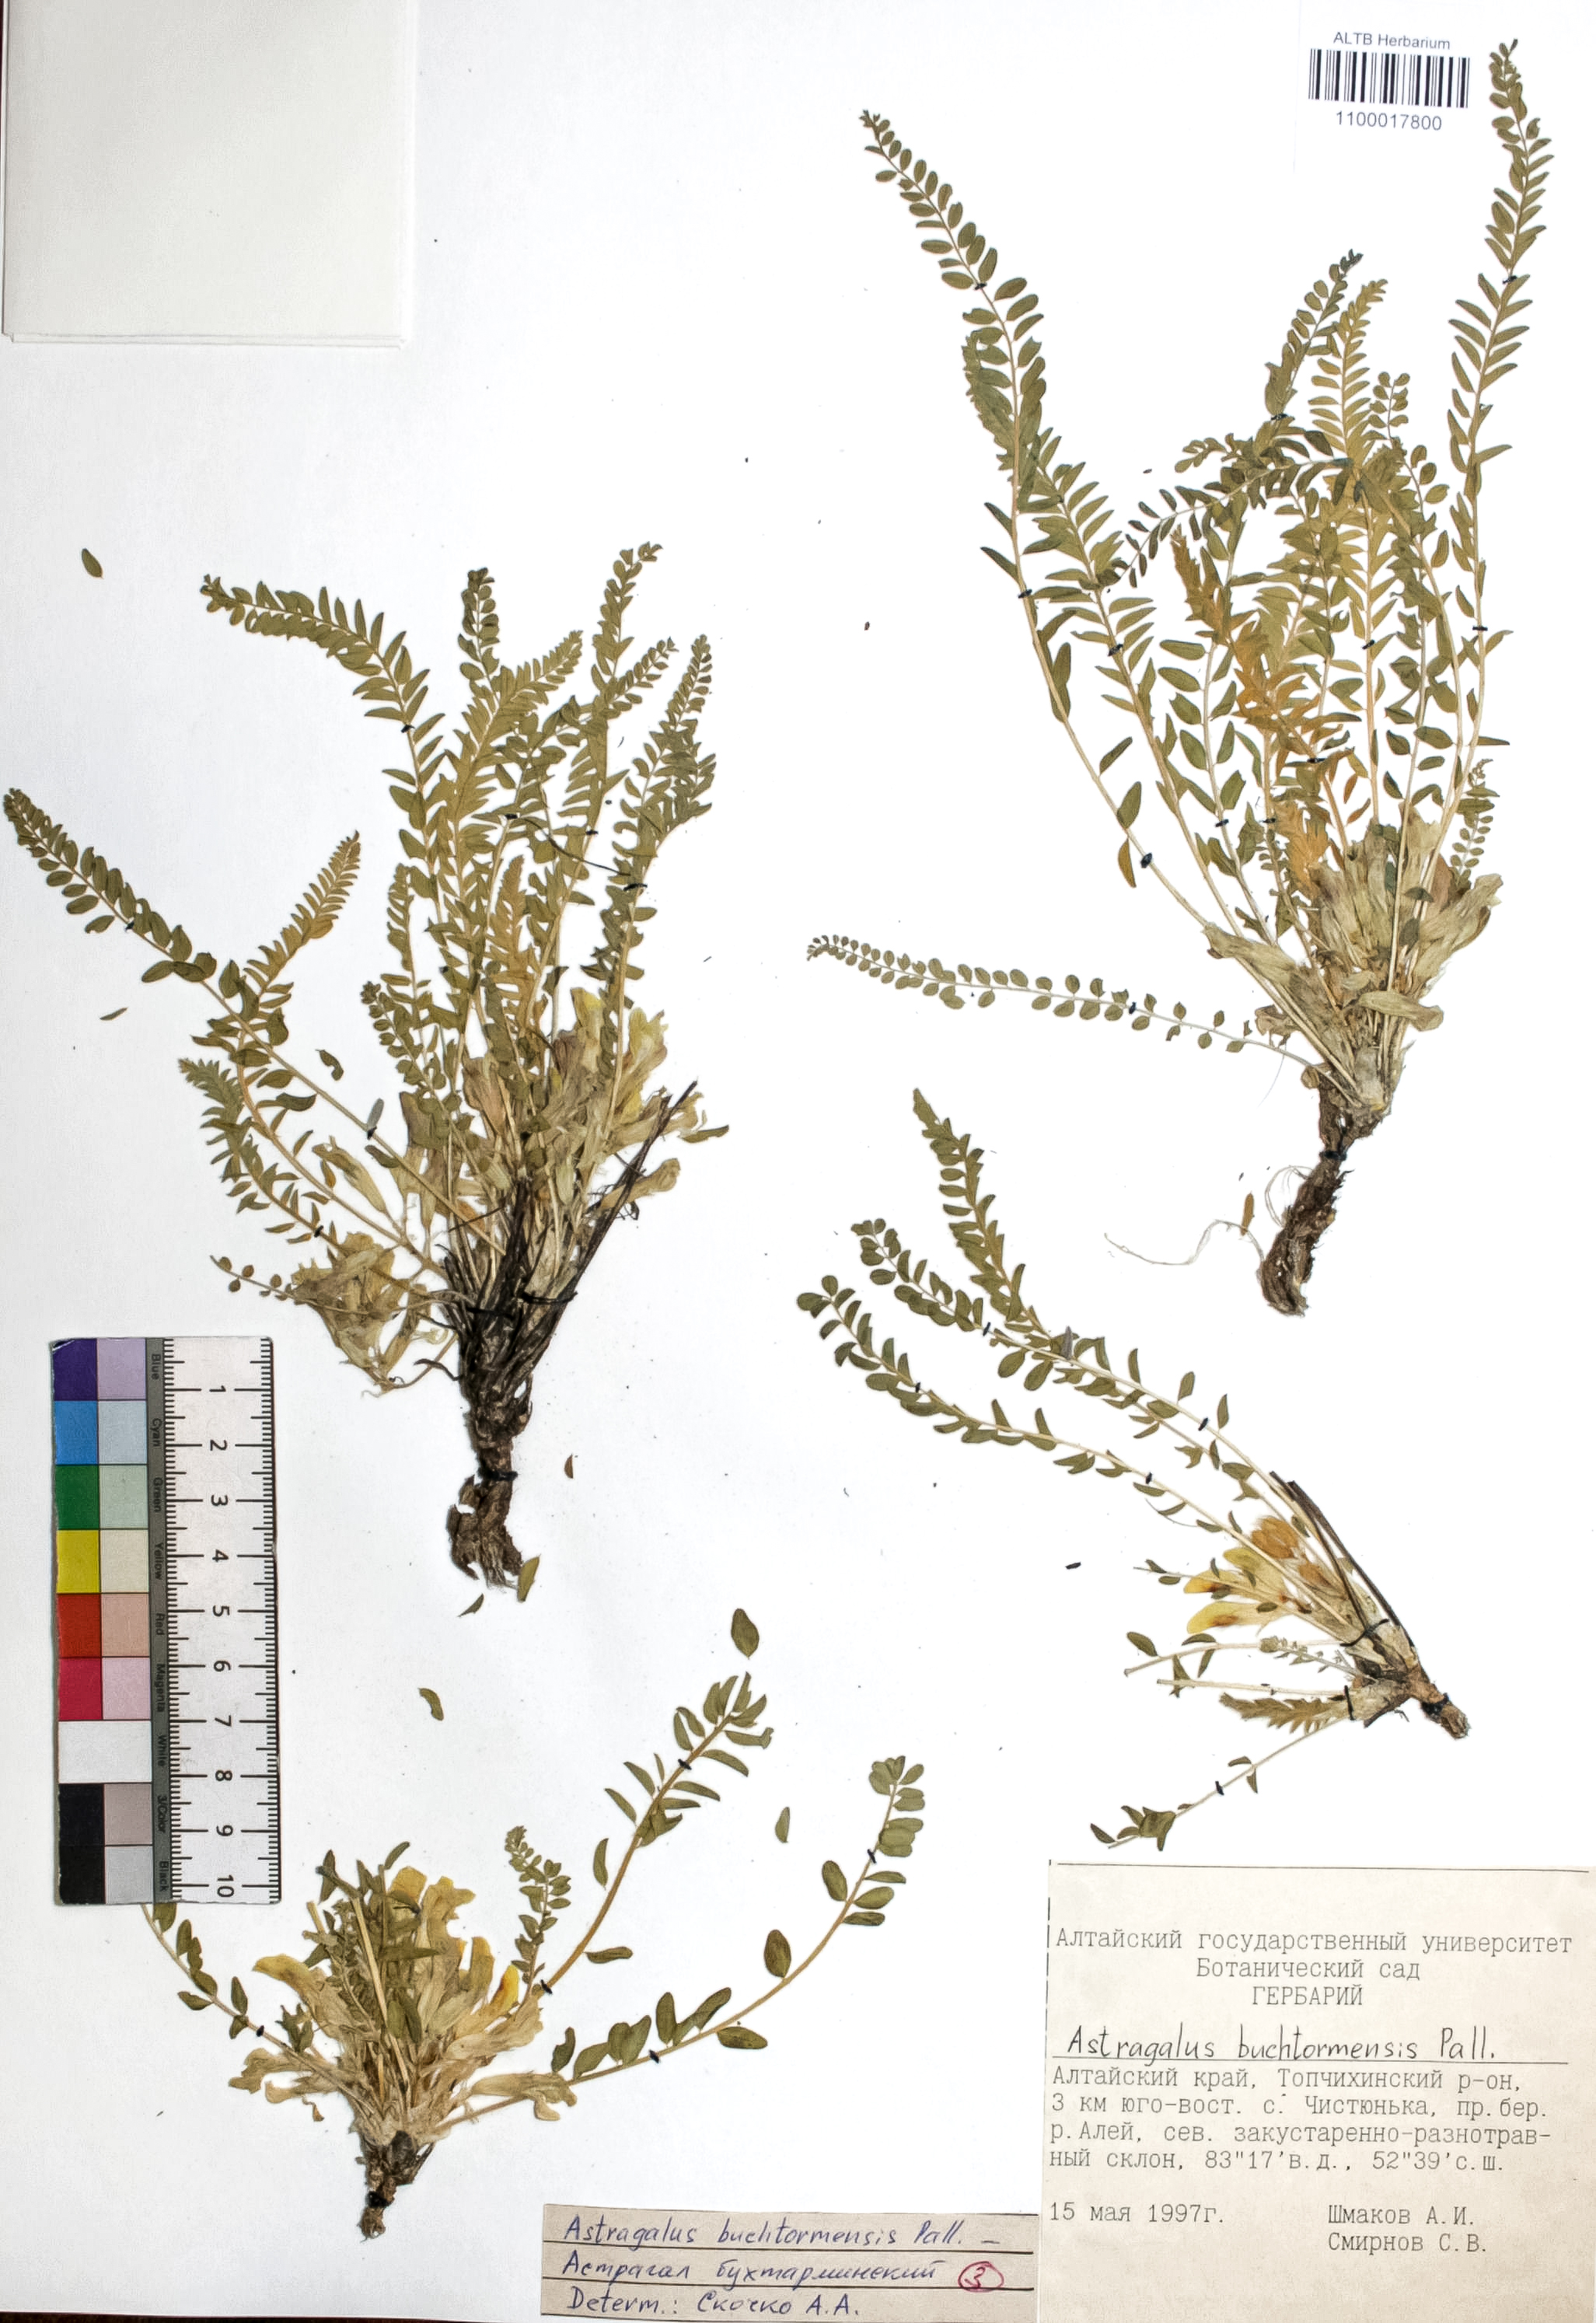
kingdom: Plantae
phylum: Tracheophyta
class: Magnoliopsida
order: Fabales
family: Fabaceae
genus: Astragalus
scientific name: Astragalus buchtormensis
